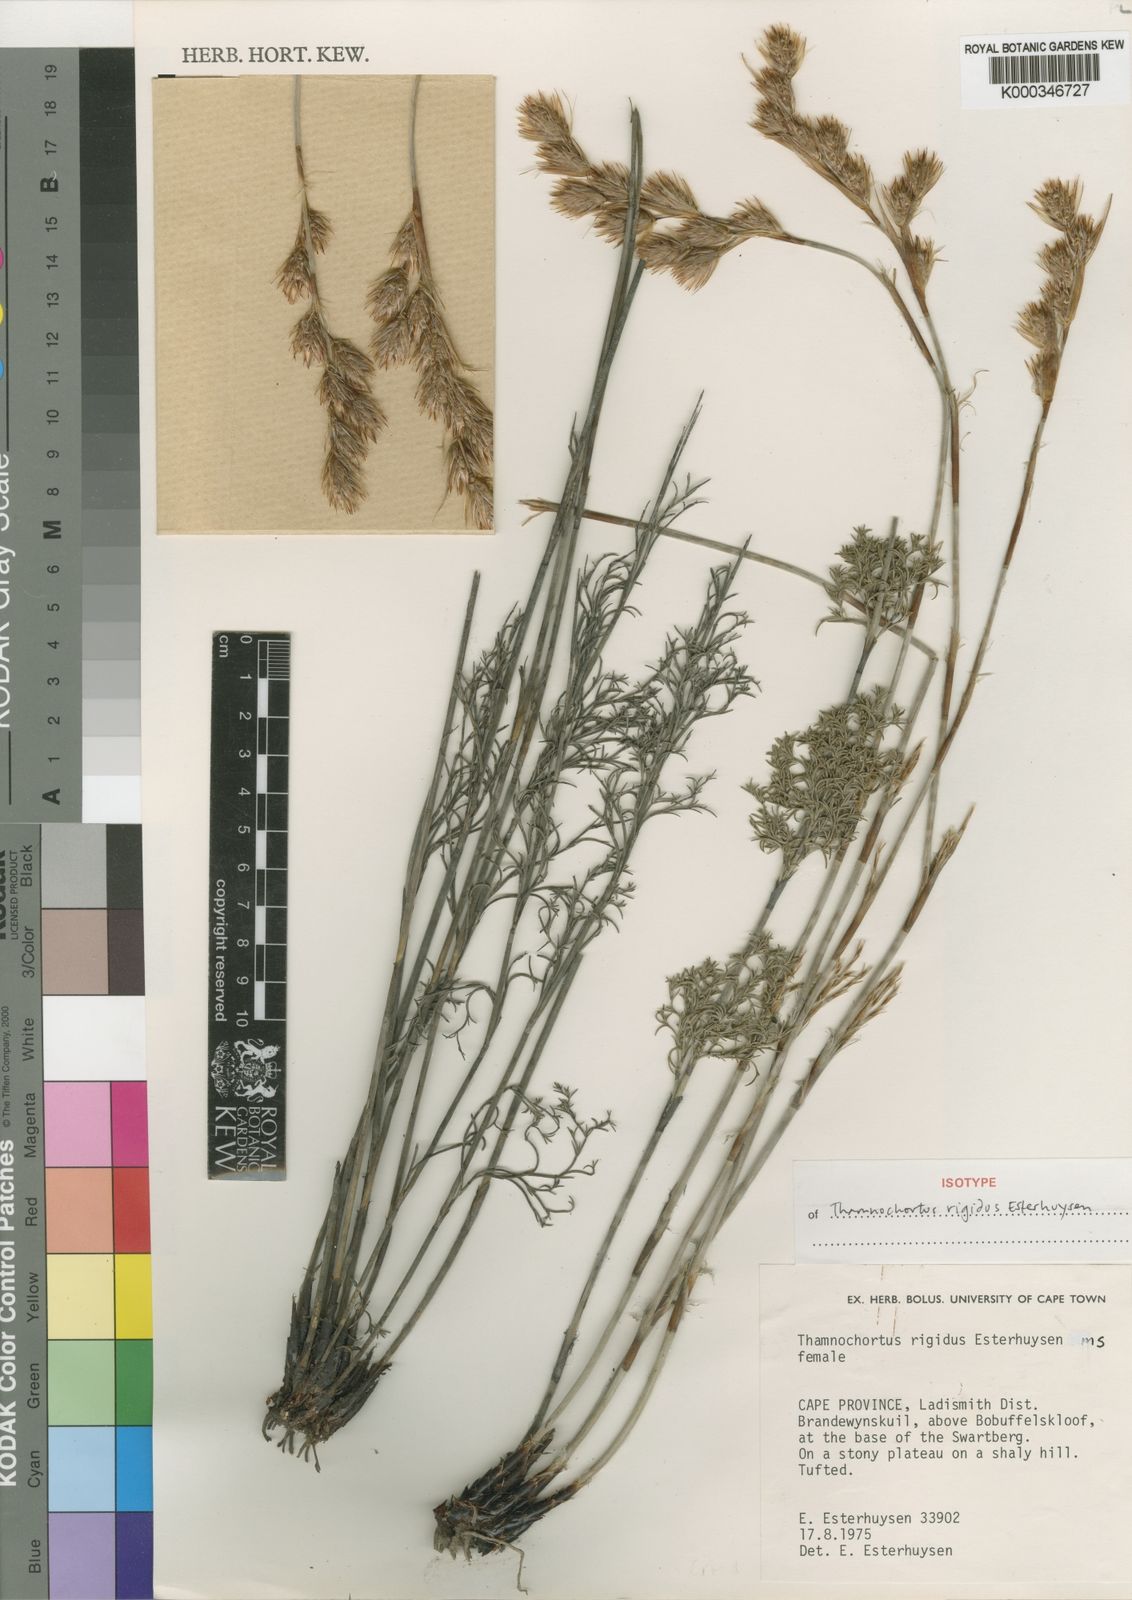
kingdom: Plantae
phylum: Tracheophyta
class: Liliopsida
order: Poales
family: Restionaceae
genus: Thamnochortus
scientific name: Thamnochortus rigidus
